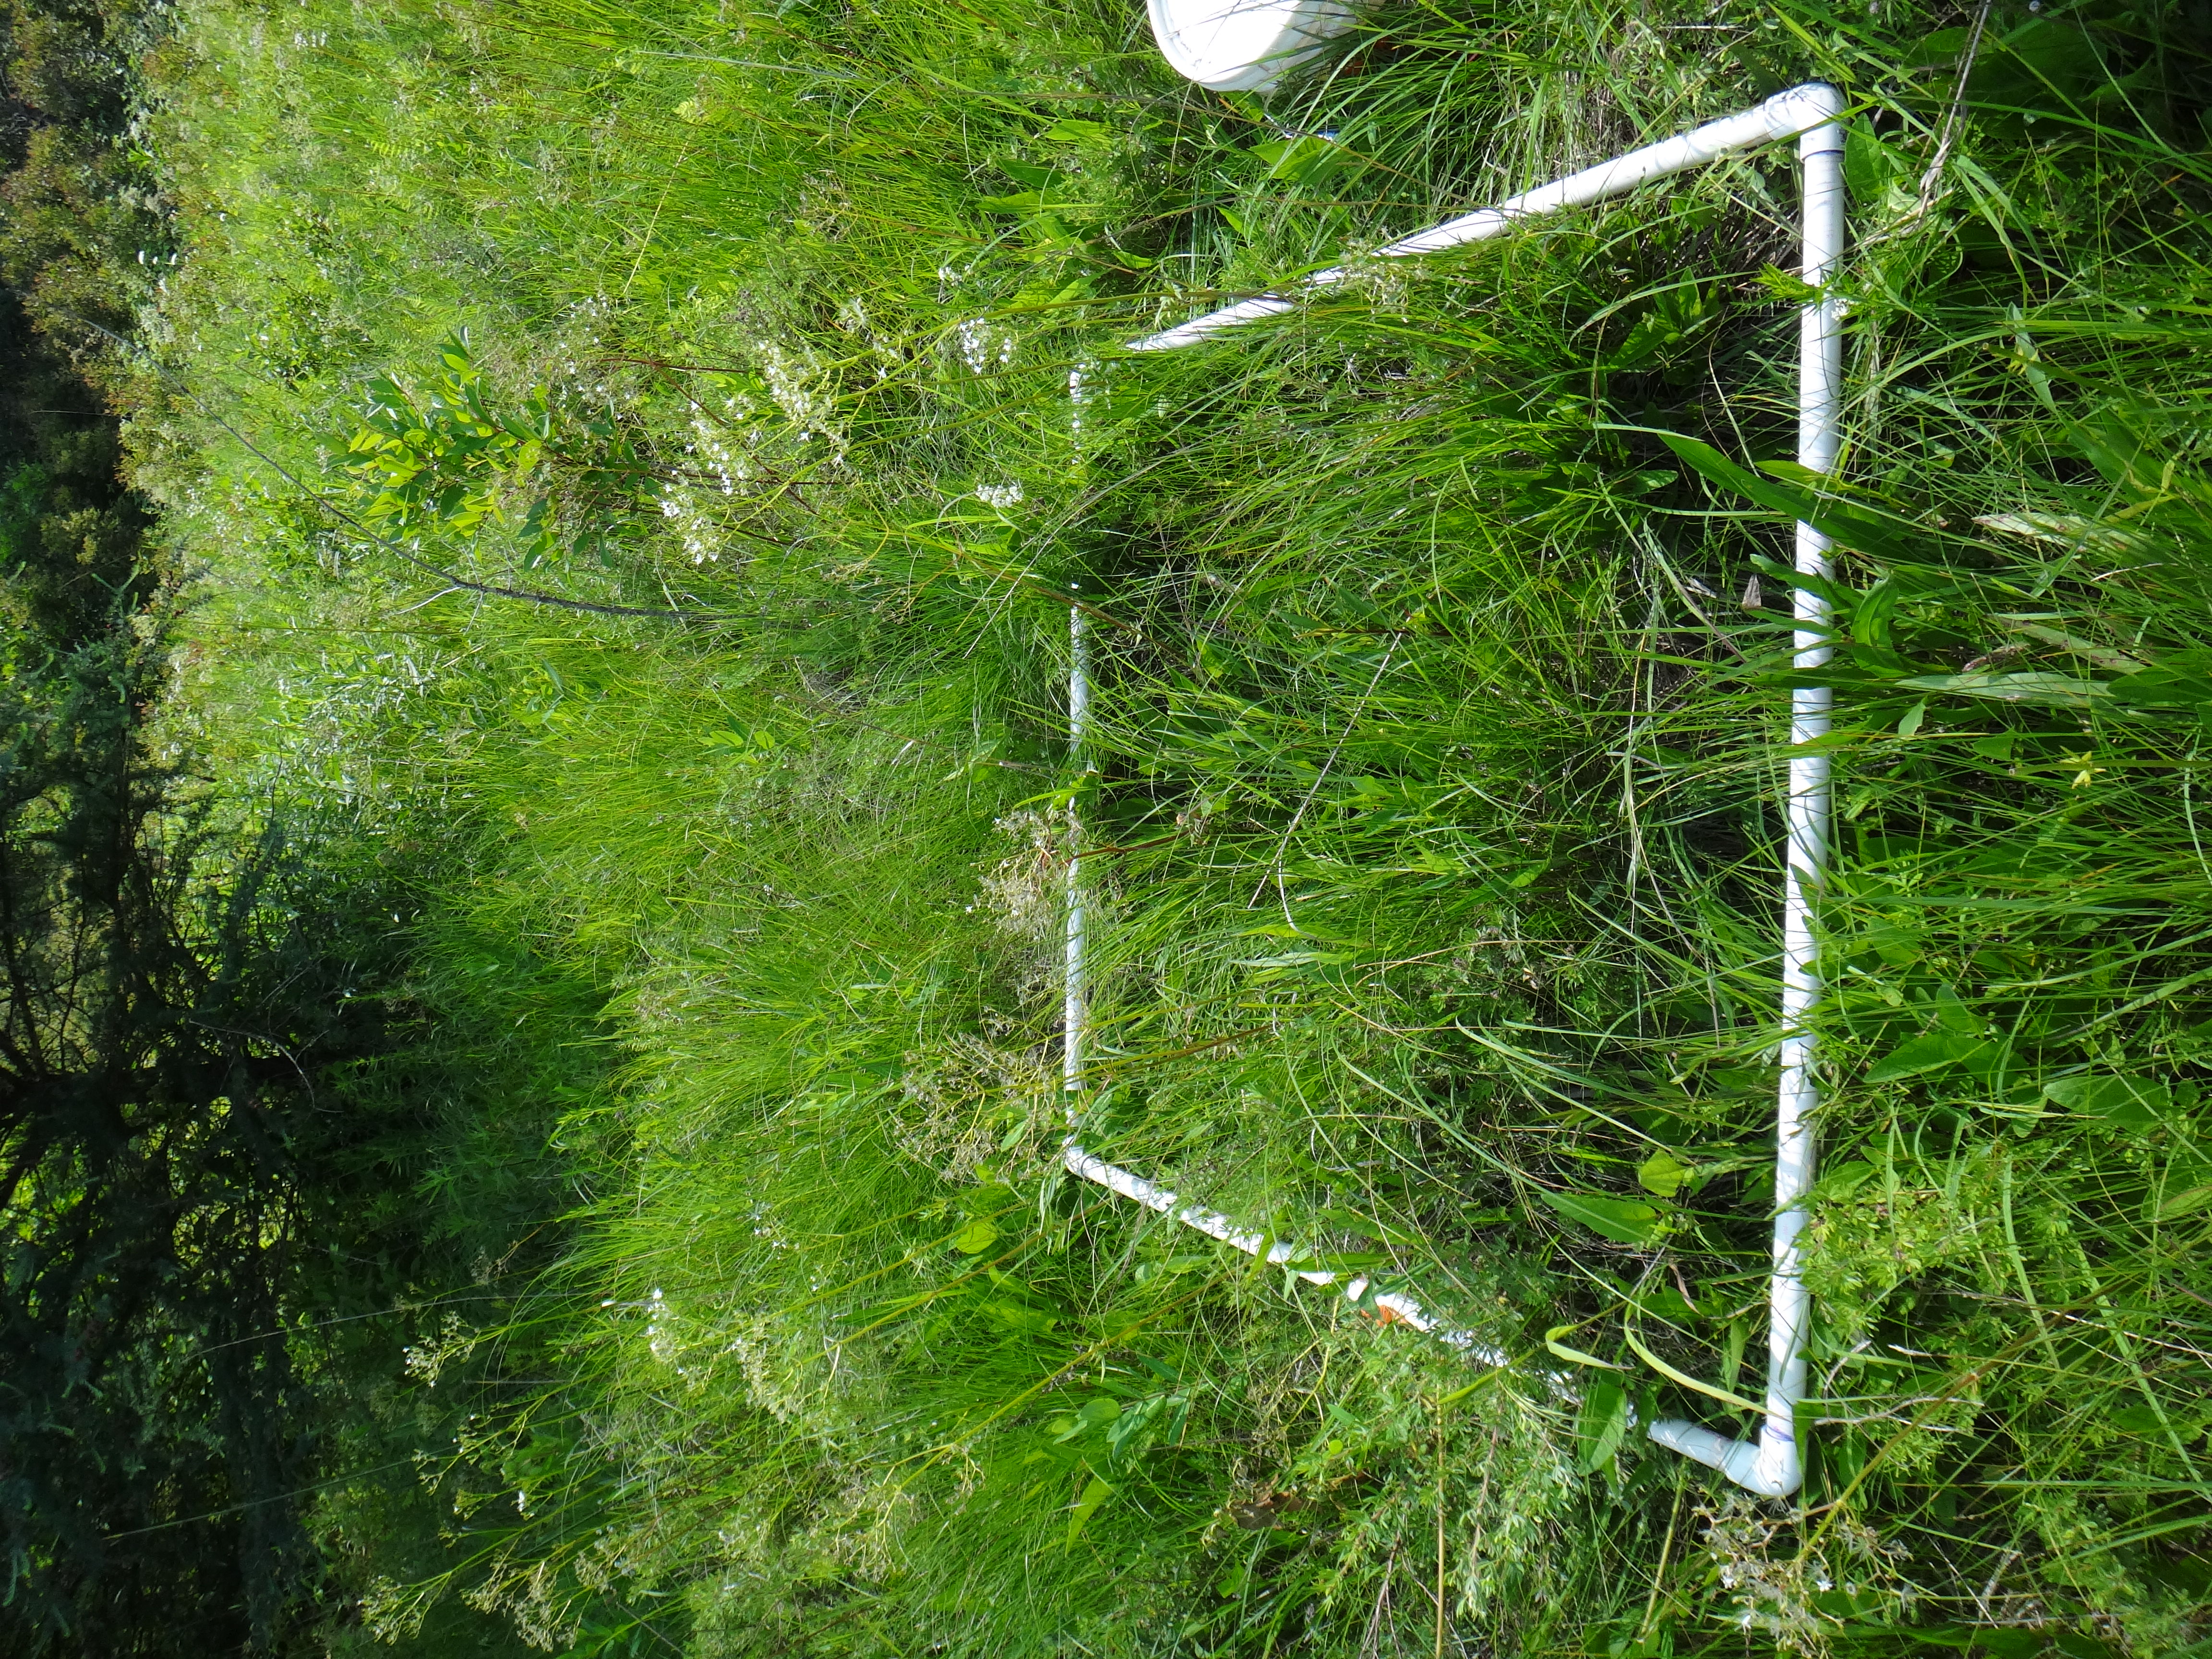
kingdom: Plantae
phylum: Tracheophyta
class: Magnoliopsida
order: Dipsacales
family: Caprifoliaceae
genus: Valeriana
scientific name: Valeriana uliginosa
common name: Marsh valerian
